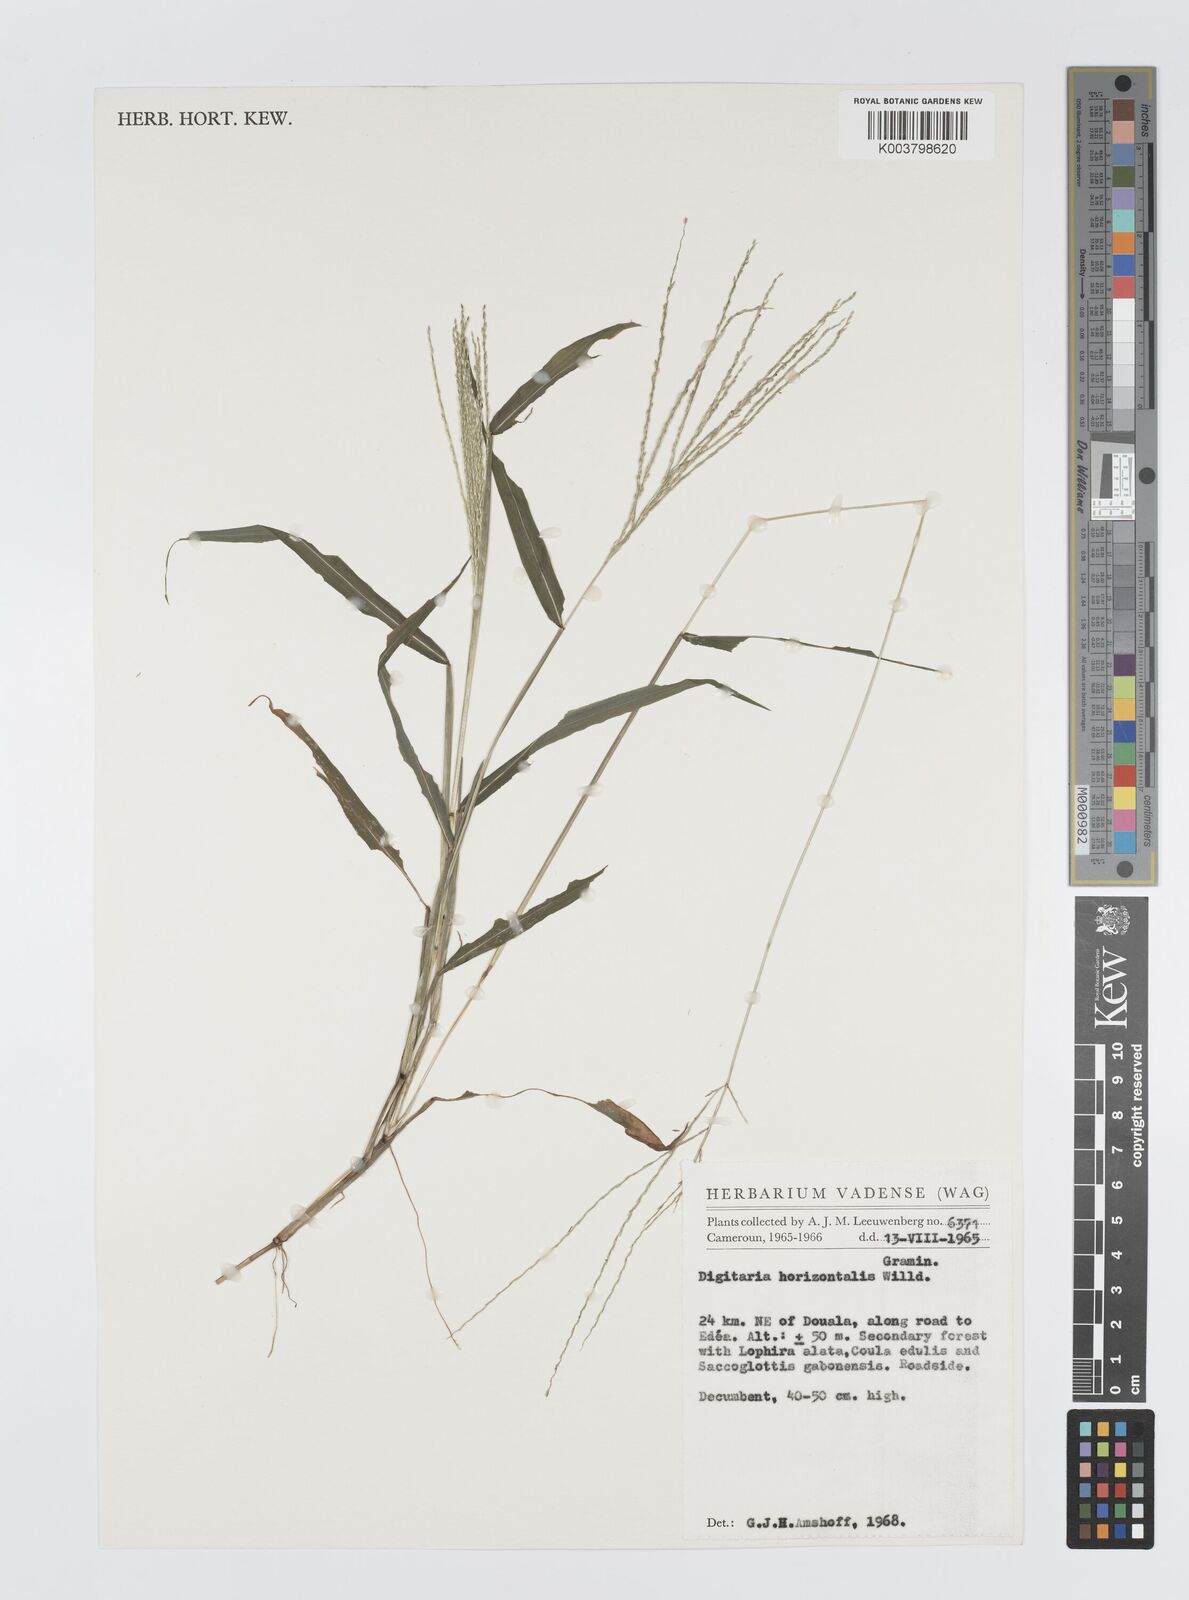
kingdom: Plantae
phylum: Tracheophyta
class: Liliopsida
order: Poales
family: Poaceae
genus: Digitaria
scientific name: Digitaria horizontalis
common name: Jamaican crabgrass
